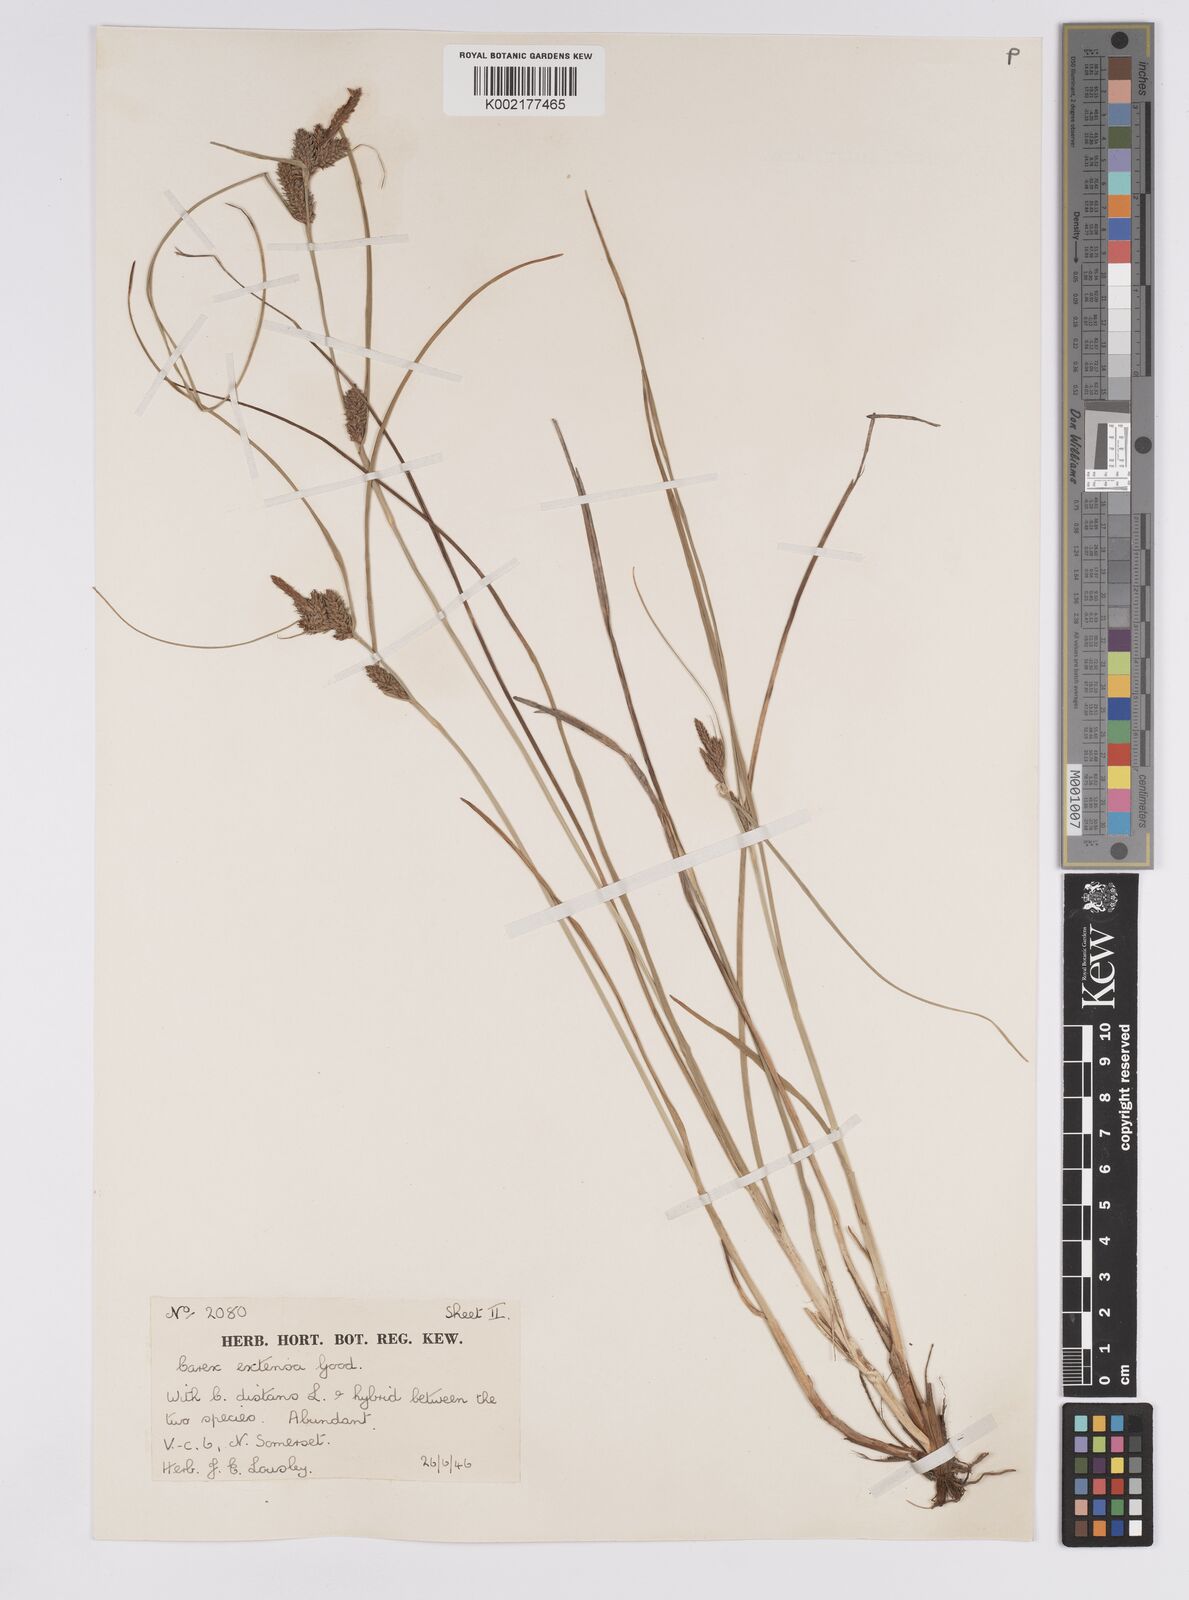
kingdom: Plantae
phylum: Tracheophyta
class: Liliopsida
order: Poales
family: Cyperaceae
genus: Carex
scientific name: Carex extensa
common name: Long-bracted sedge
